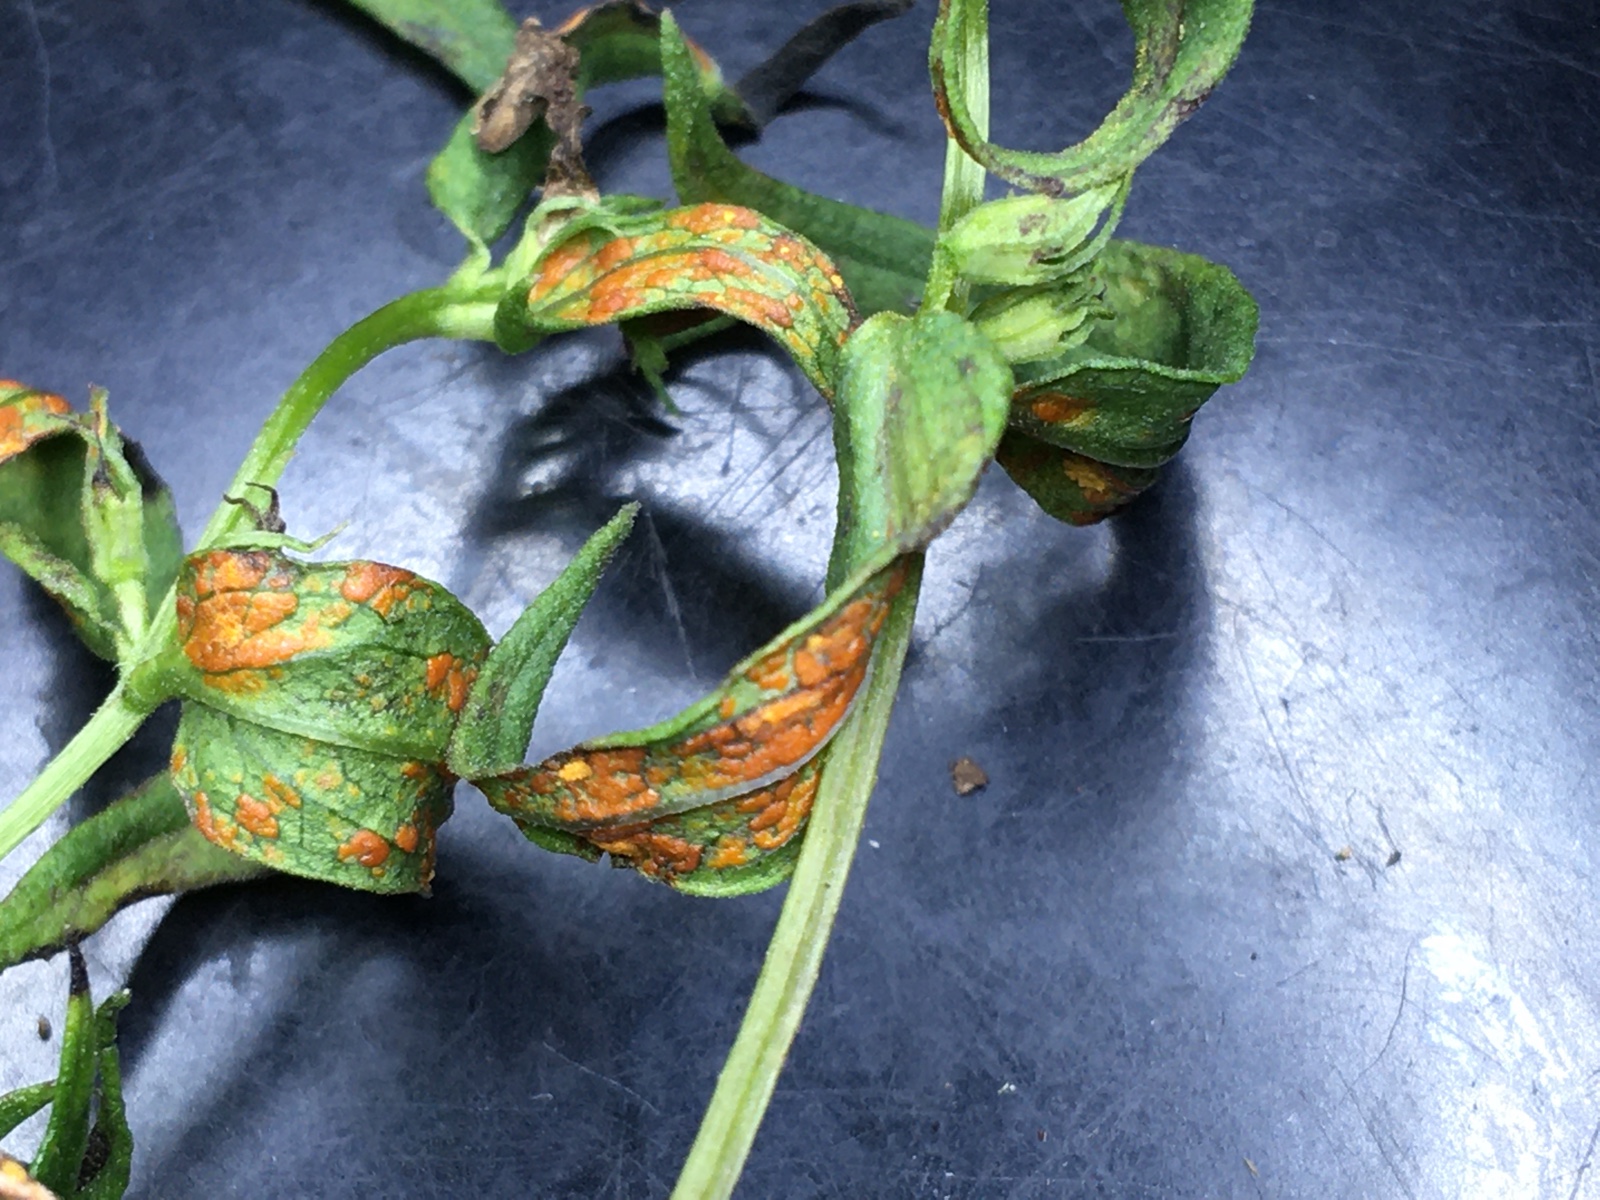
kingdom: Fungi
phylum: Basidiomycota
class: Pucciniomycetes
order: Pucciniales
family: Coleosporiaceae
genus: Coleosporium
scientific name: Coleosporium tussilaginis
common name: almindelig fyrrenålerust
